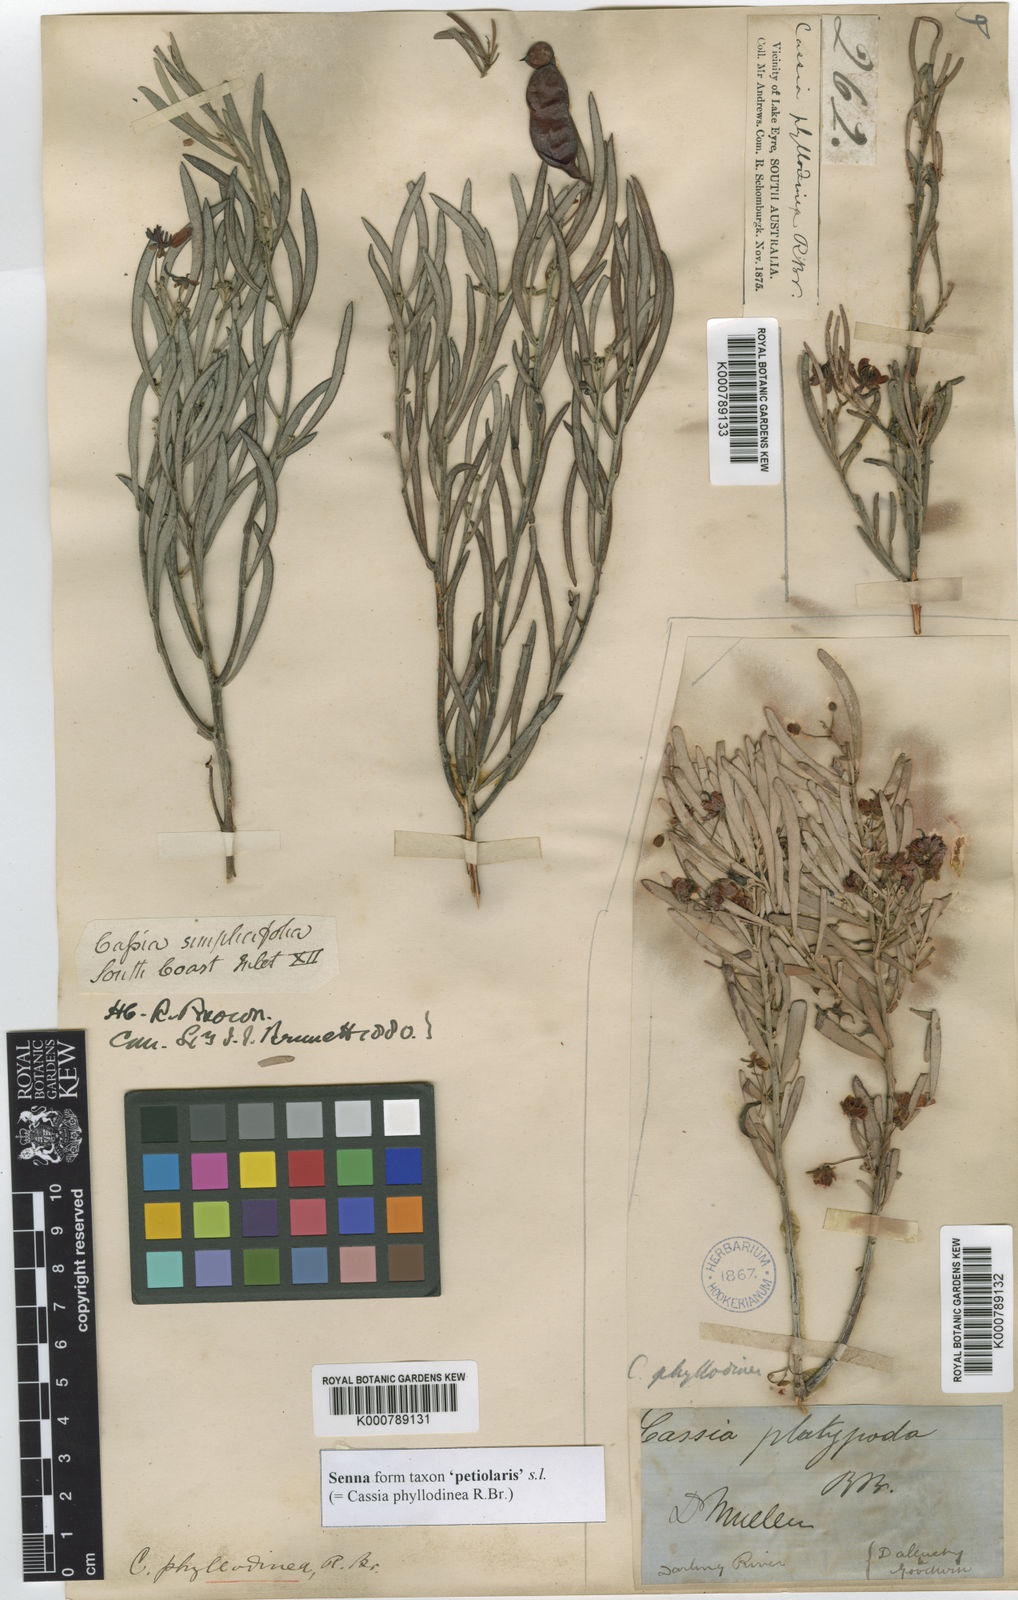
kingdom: Plantae
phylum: Tracheophyta
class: Magnoliopsida
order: Fabales
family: Fabaceae
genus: Senna
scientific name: Senna
